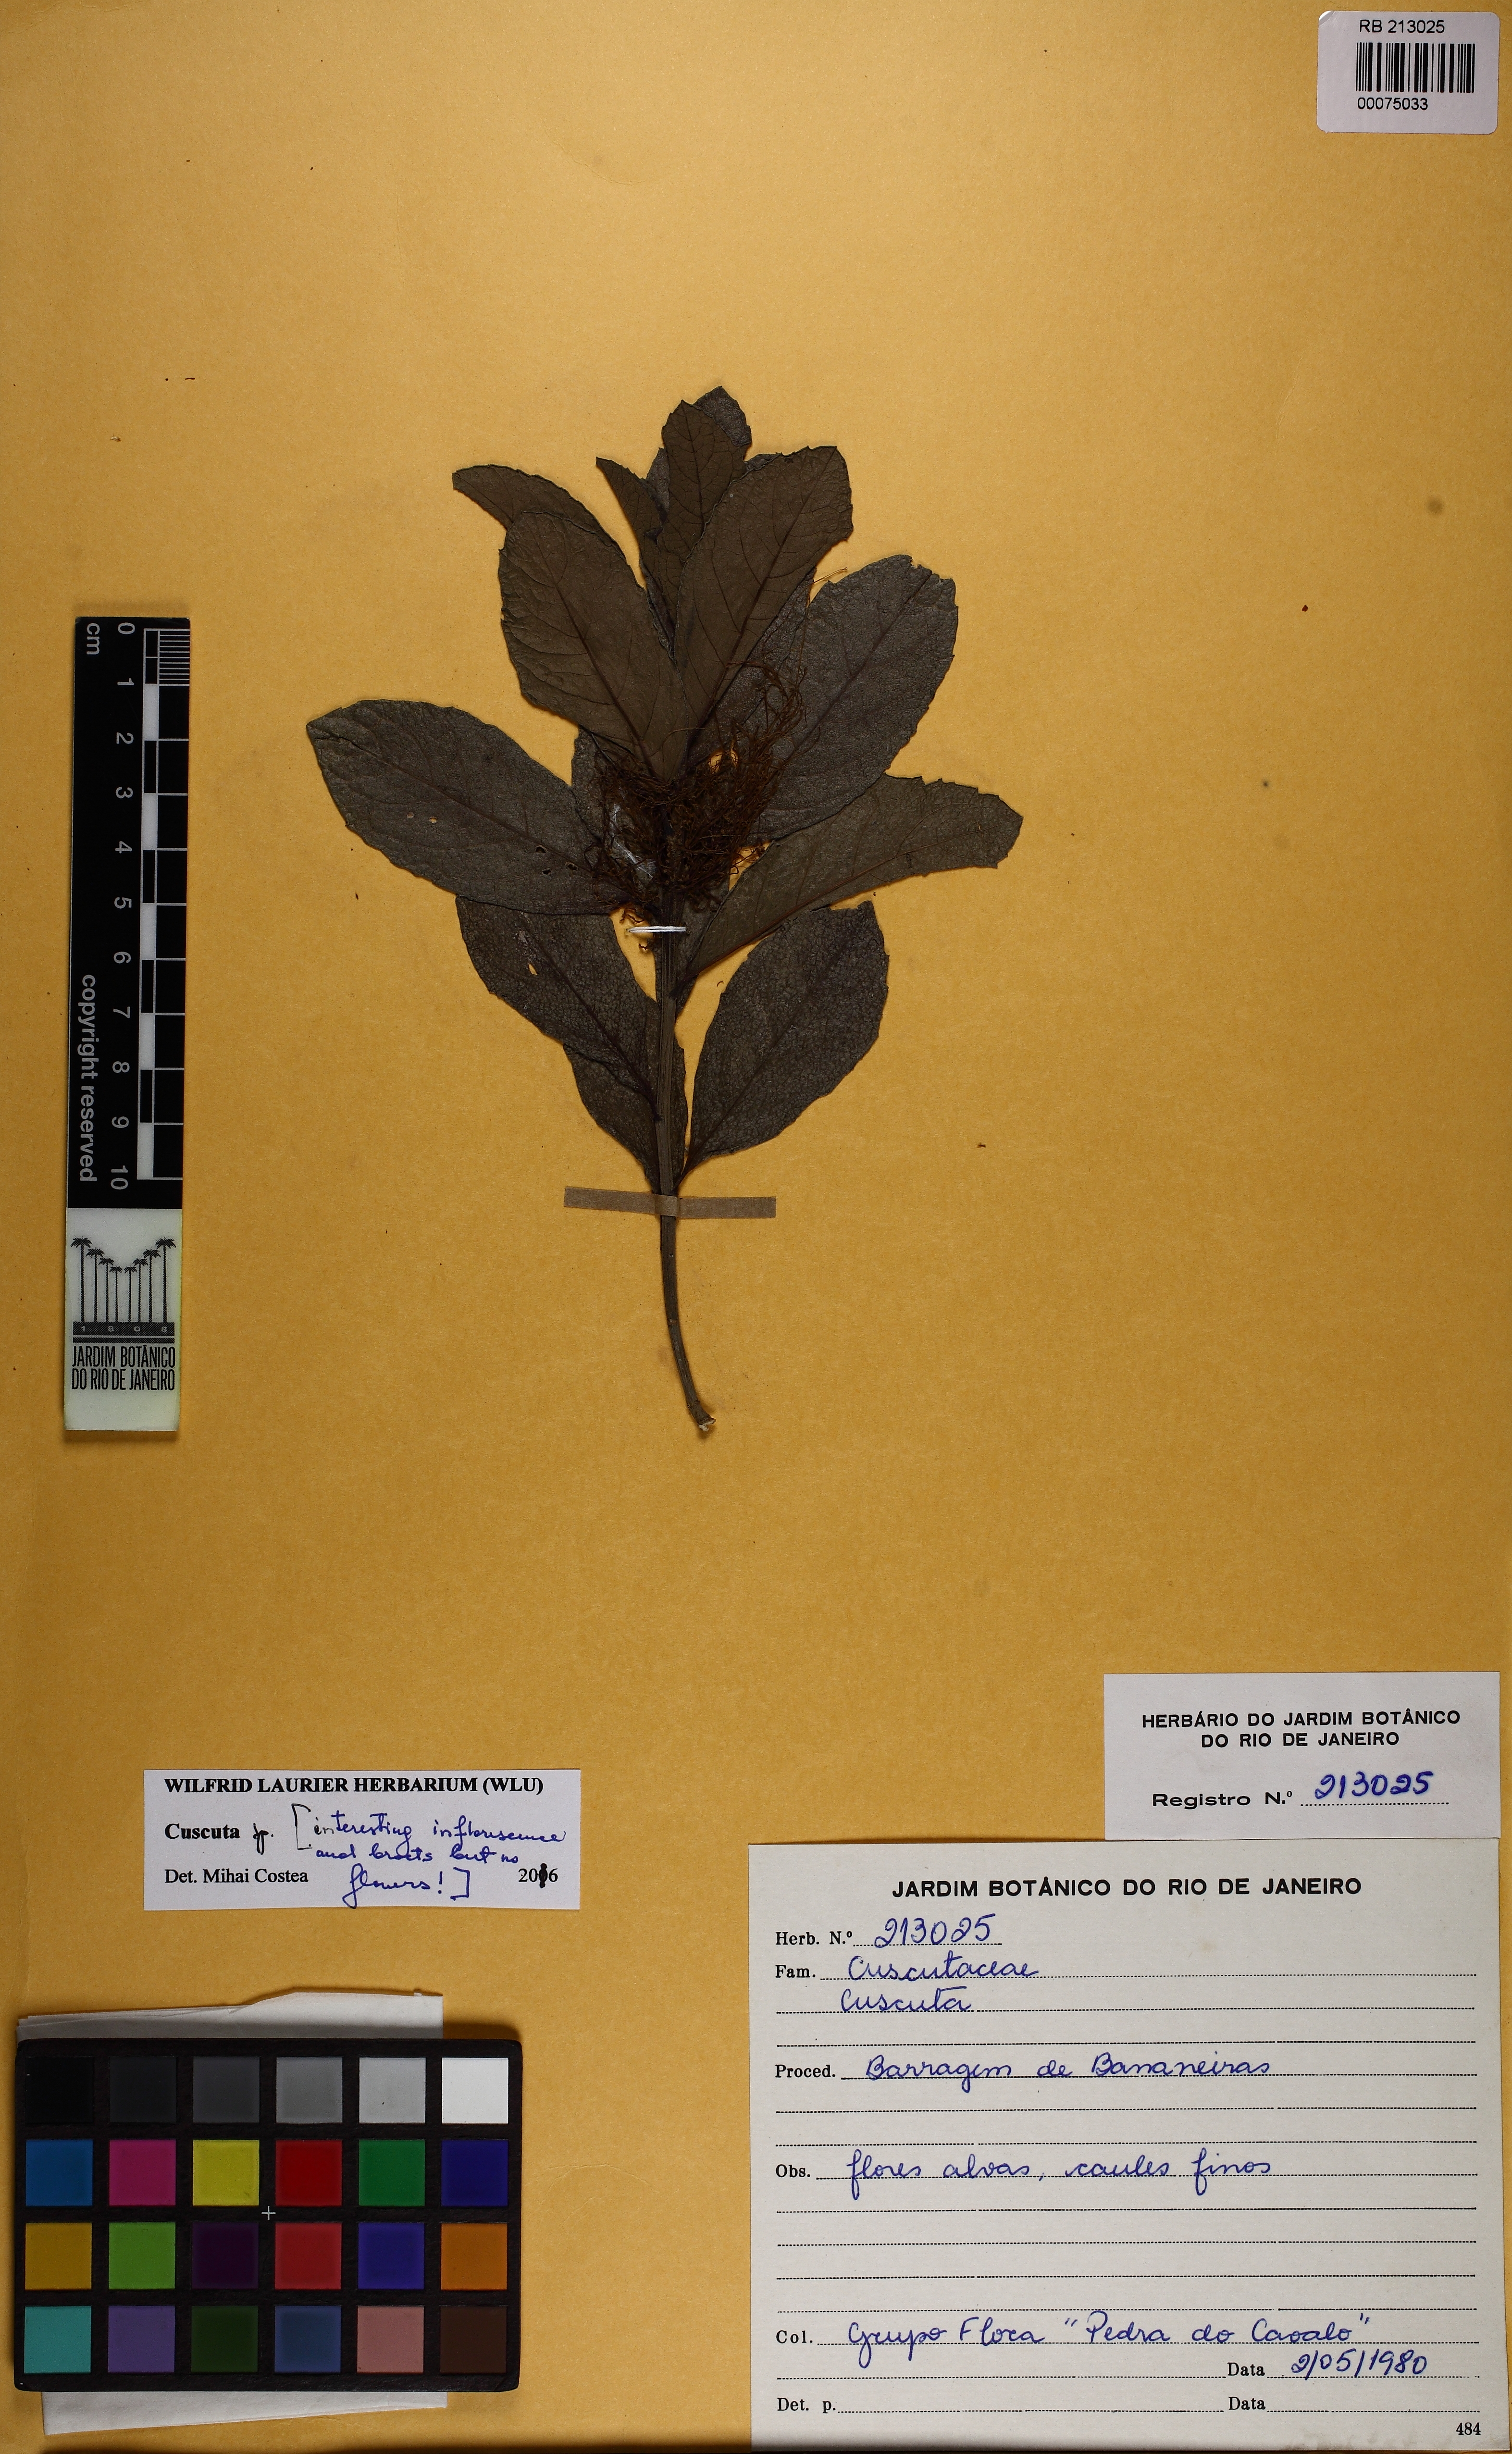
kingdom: Plantae
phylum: Tracheophyta
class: Magnoliopsida
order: Solanales
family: Convolvulaceae
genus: Cuscuta
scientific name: Cuscuta
